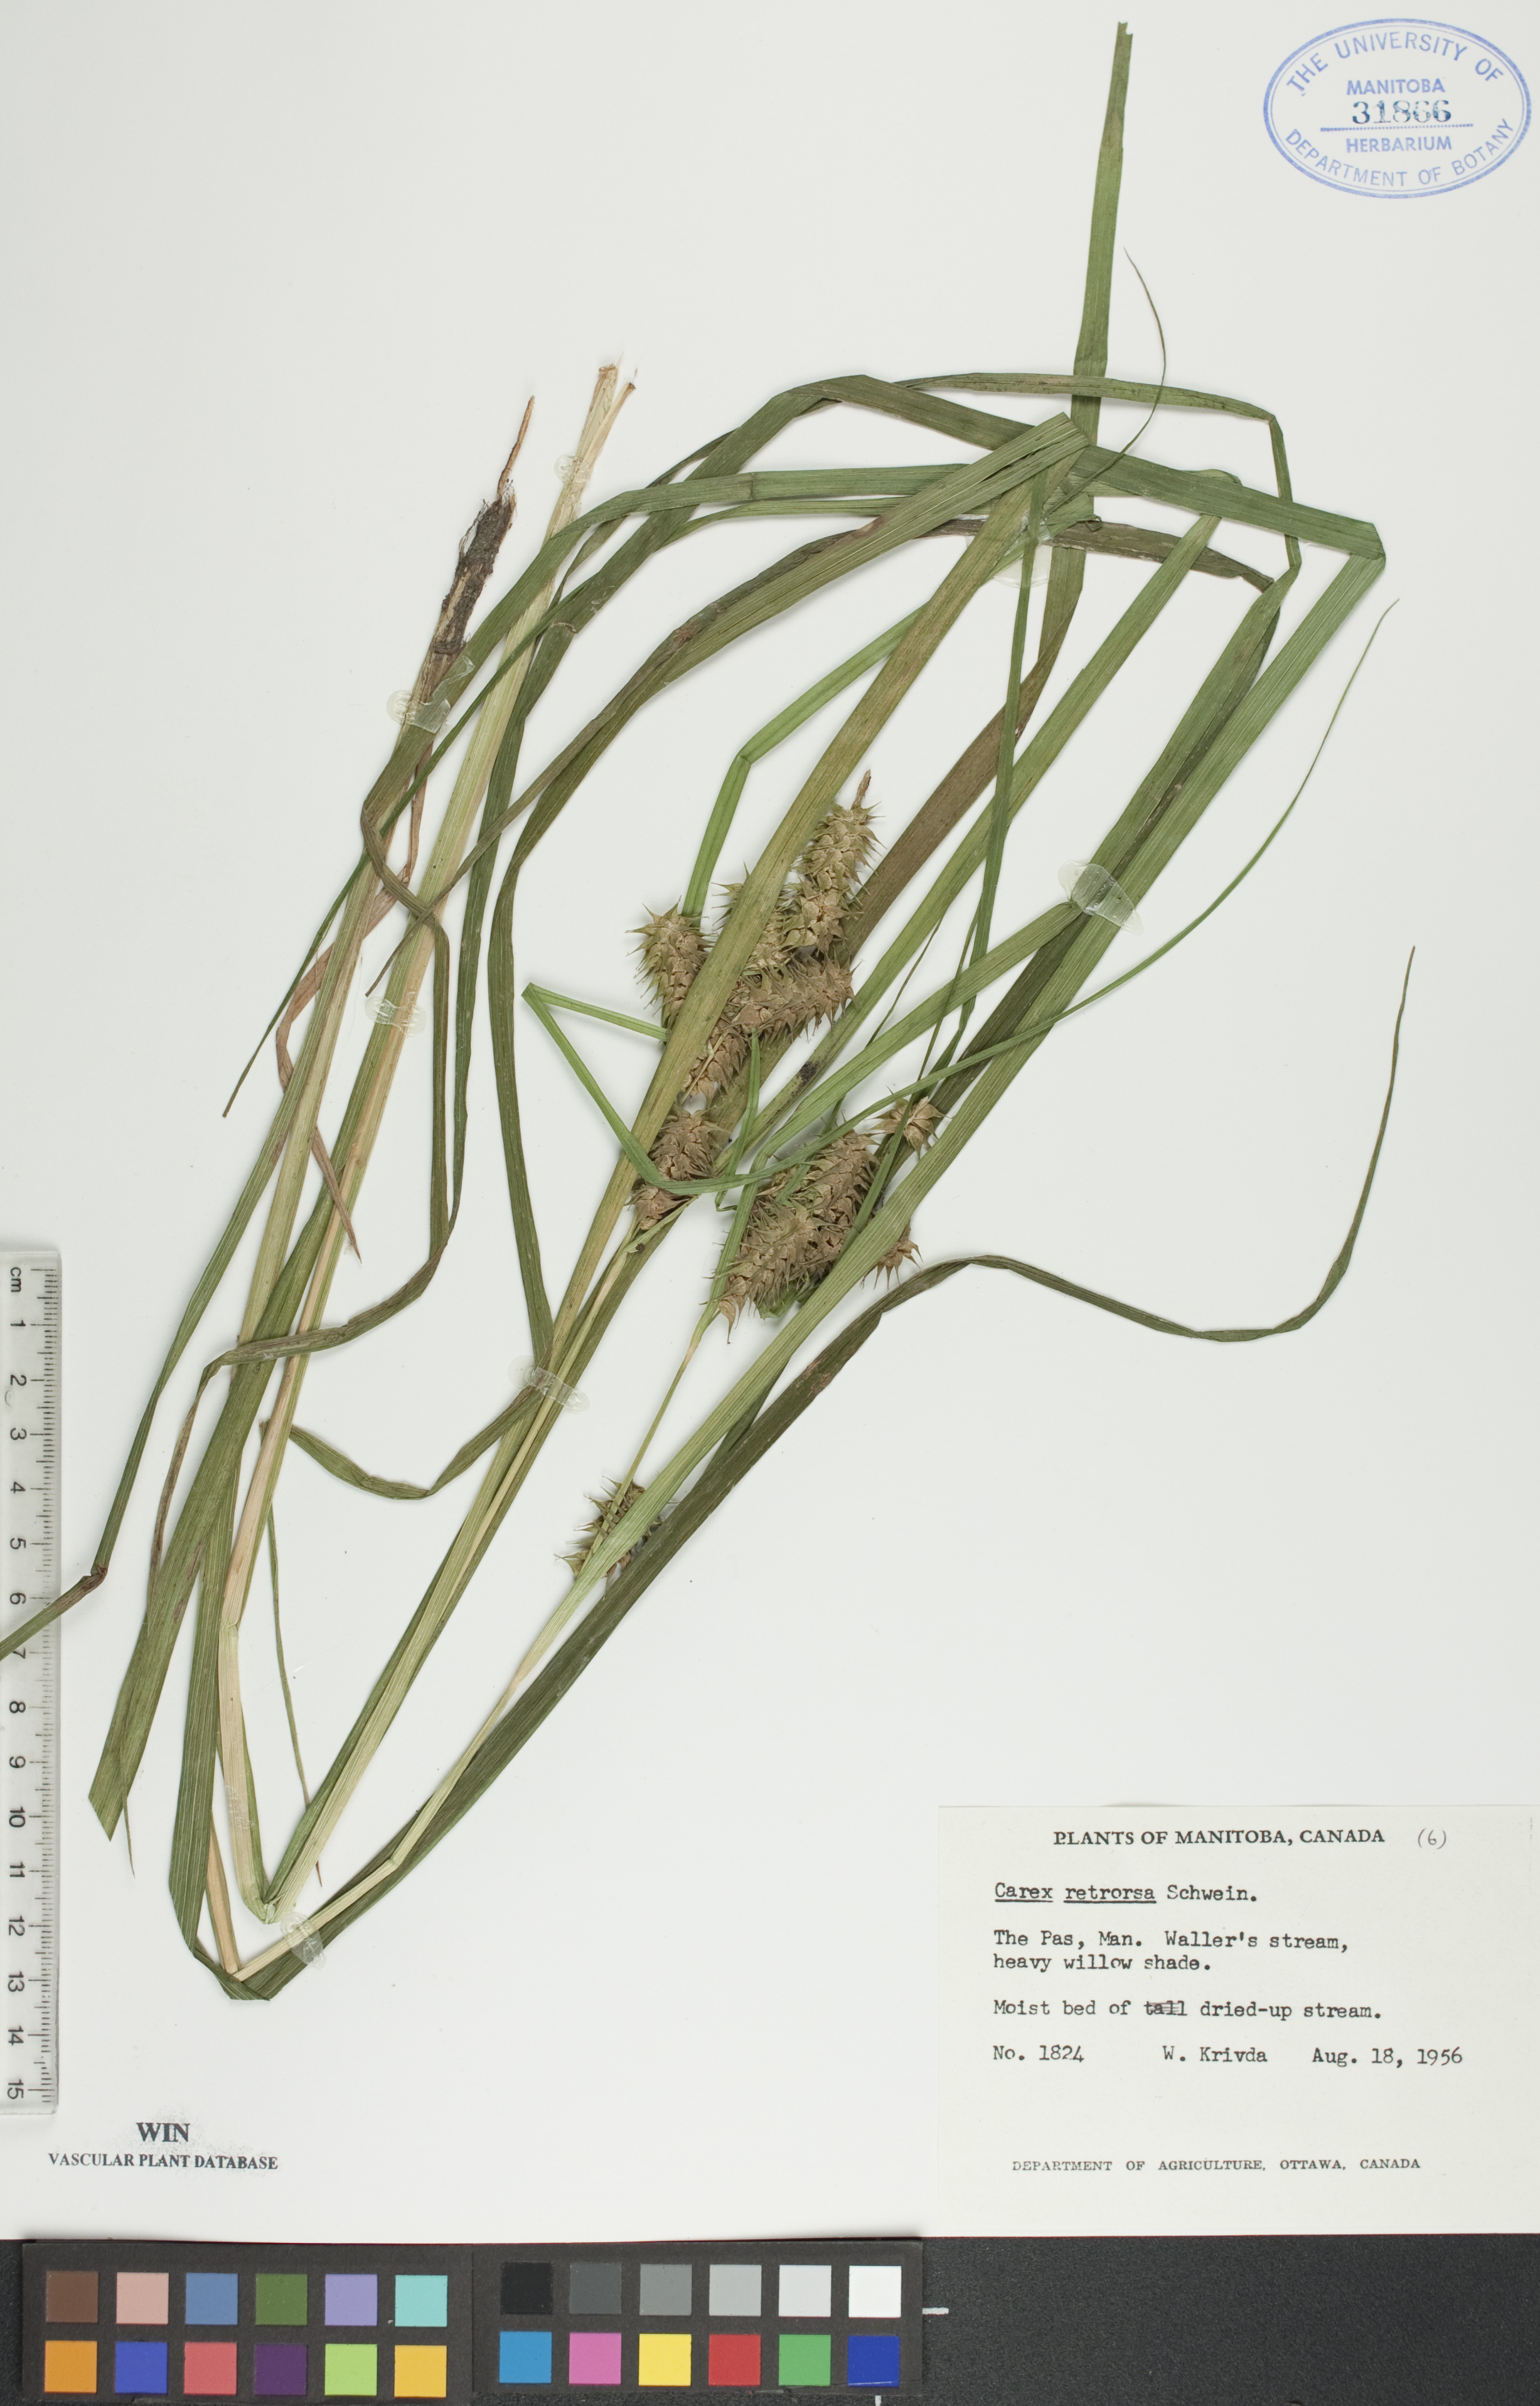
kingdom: Plantae
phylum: Tracheophyta
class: Liliopsida
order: Poales
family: Cyperaceae
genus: Carex
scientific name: Carex retrorsa
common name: Knot-sheath sedge
